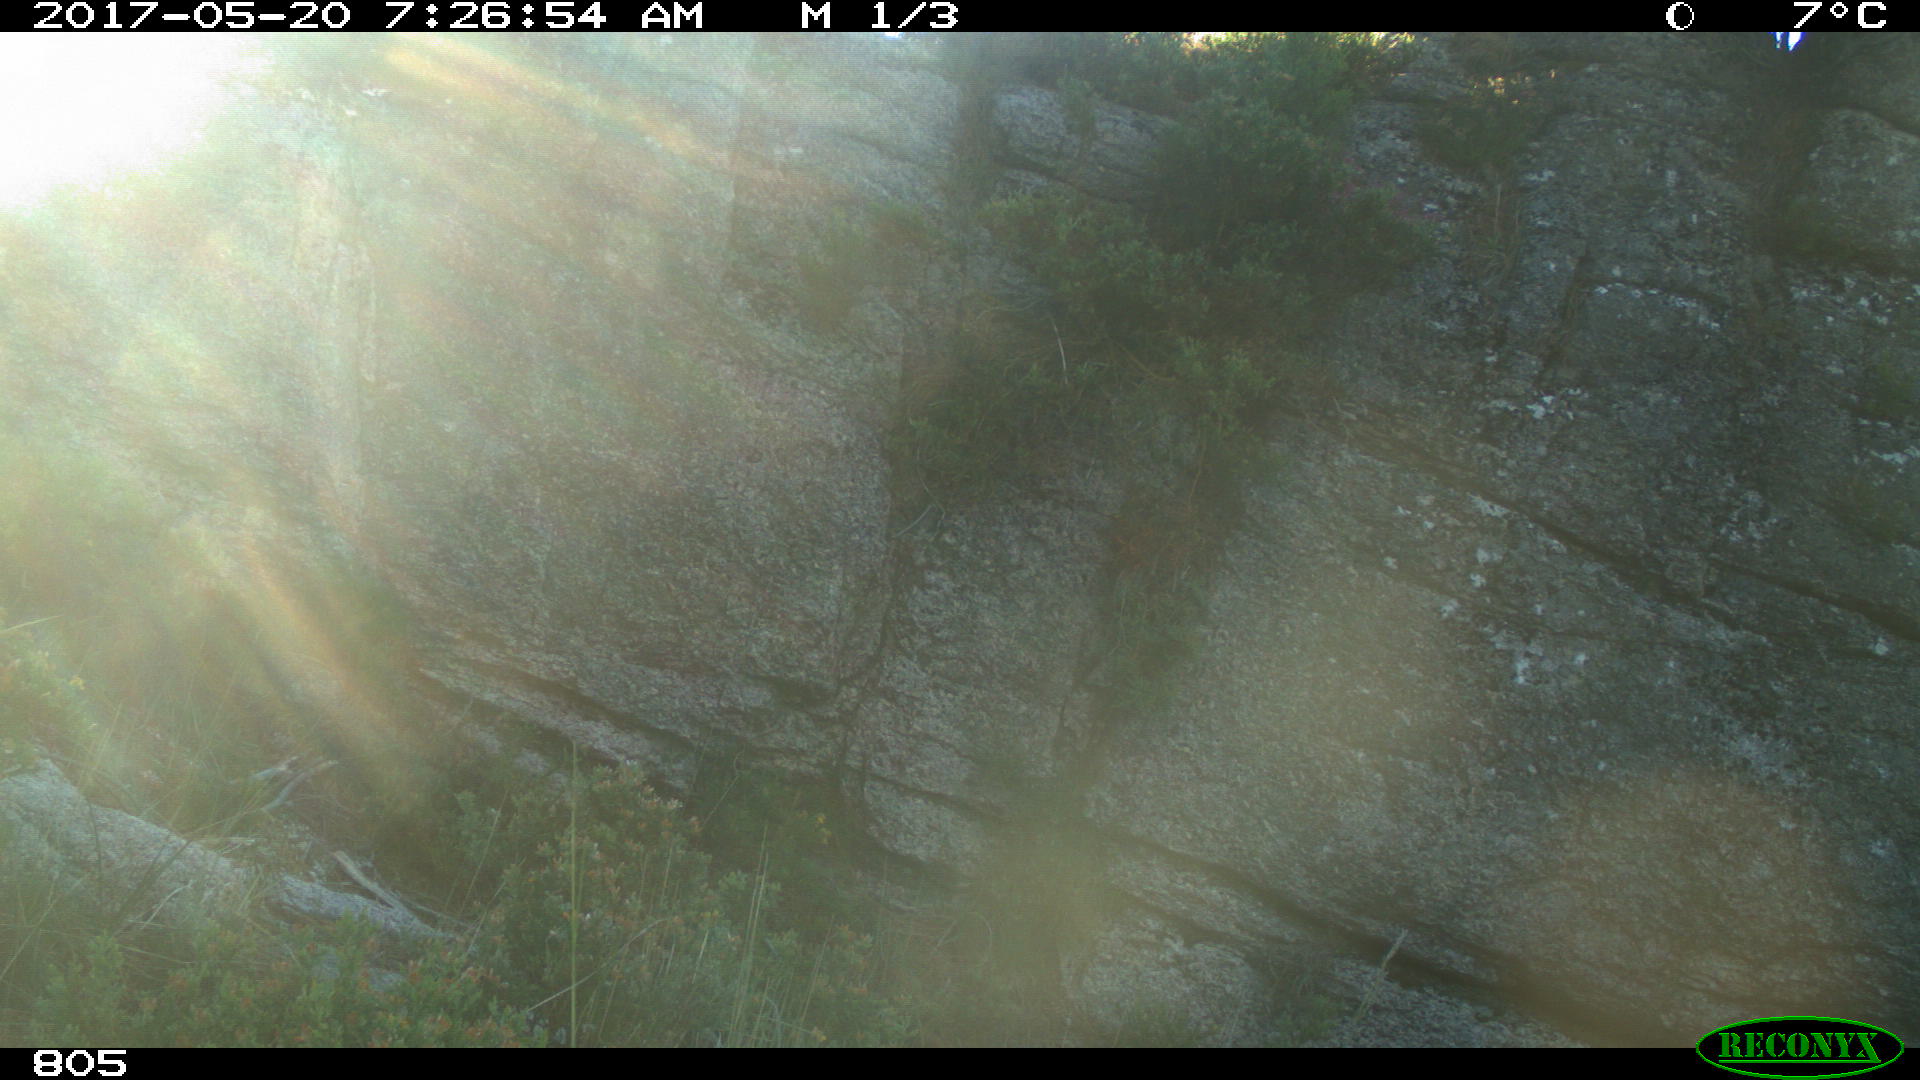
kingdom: Animalia
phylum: Chordata
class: Mammalia
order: Artiodactyla
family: Cervidae
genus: Capreolus
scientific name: Capreolus capreolus
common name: Western roe deer
